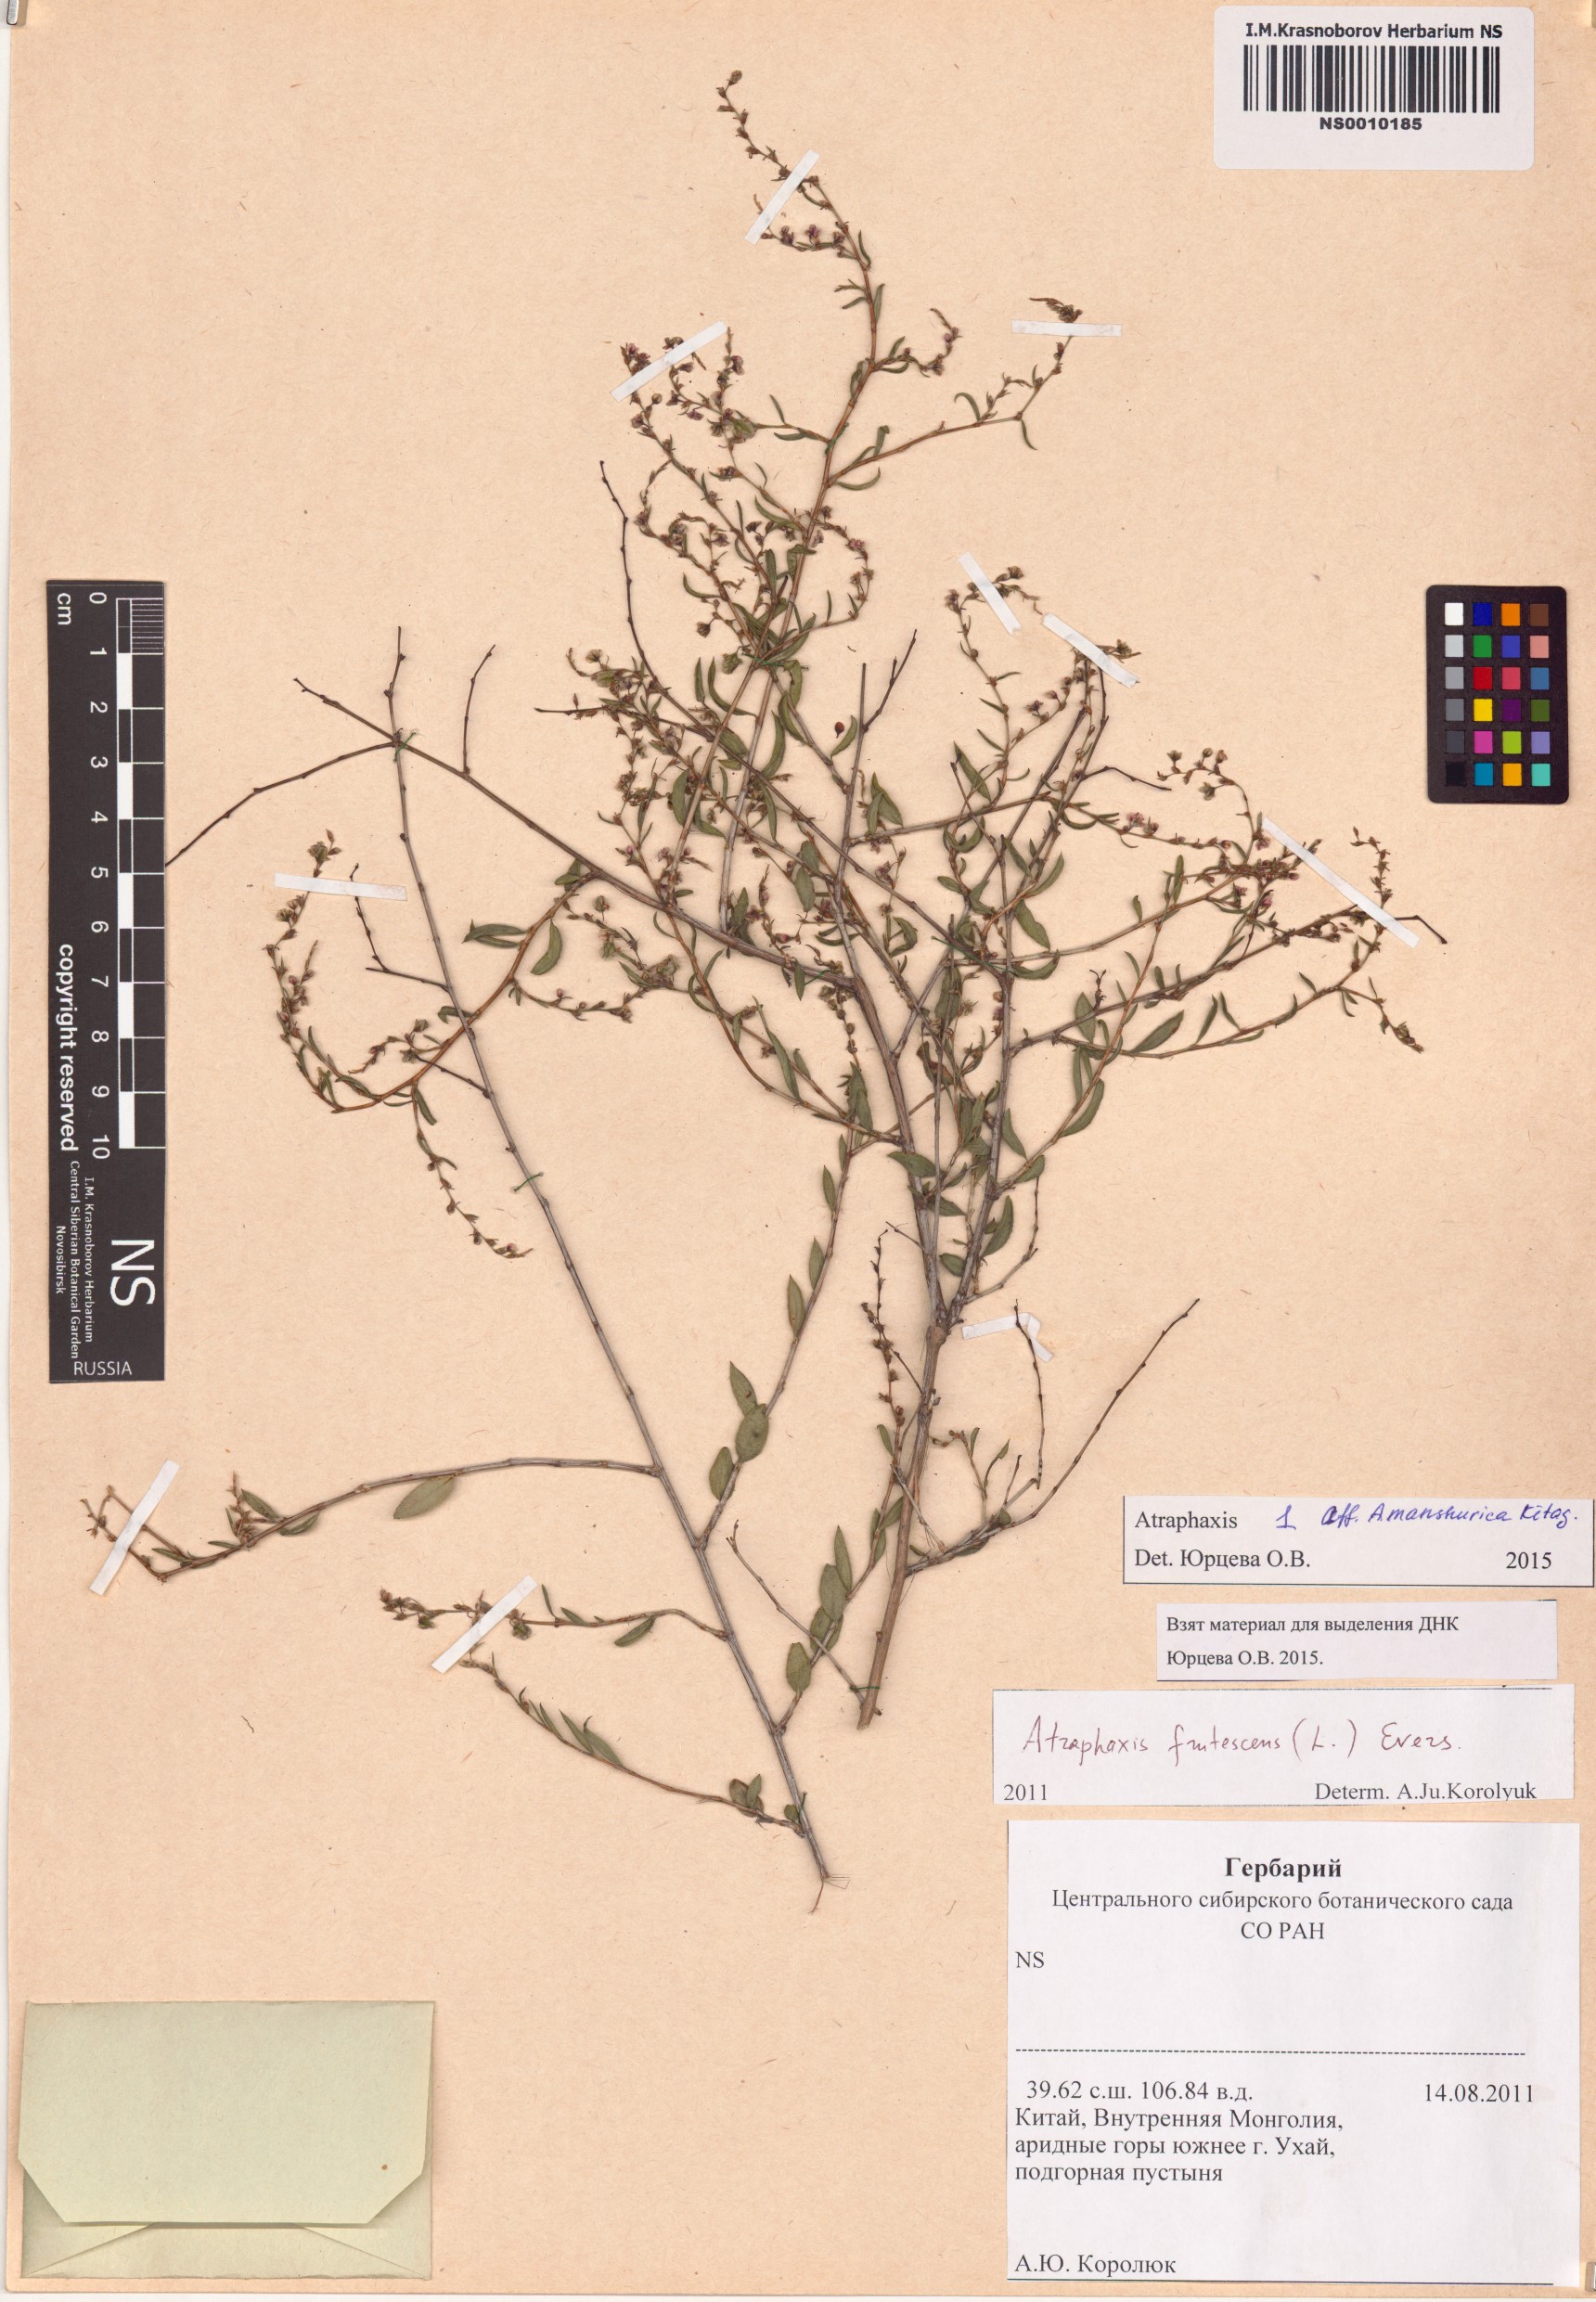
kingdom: Plantae
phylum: Tracheophyta
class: Magnoliopsida
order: Caryophyllales
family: Polygonaceae
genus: Atraphaxis
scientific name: Atraphaxis manshurica
